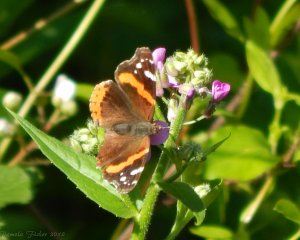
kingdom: Animalia
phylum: Arthropoda
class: Insecta
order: Lepidoptera
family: Nymphalidae
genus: Vanessa
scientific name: Vanessa atalanta
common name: Red Admiral
